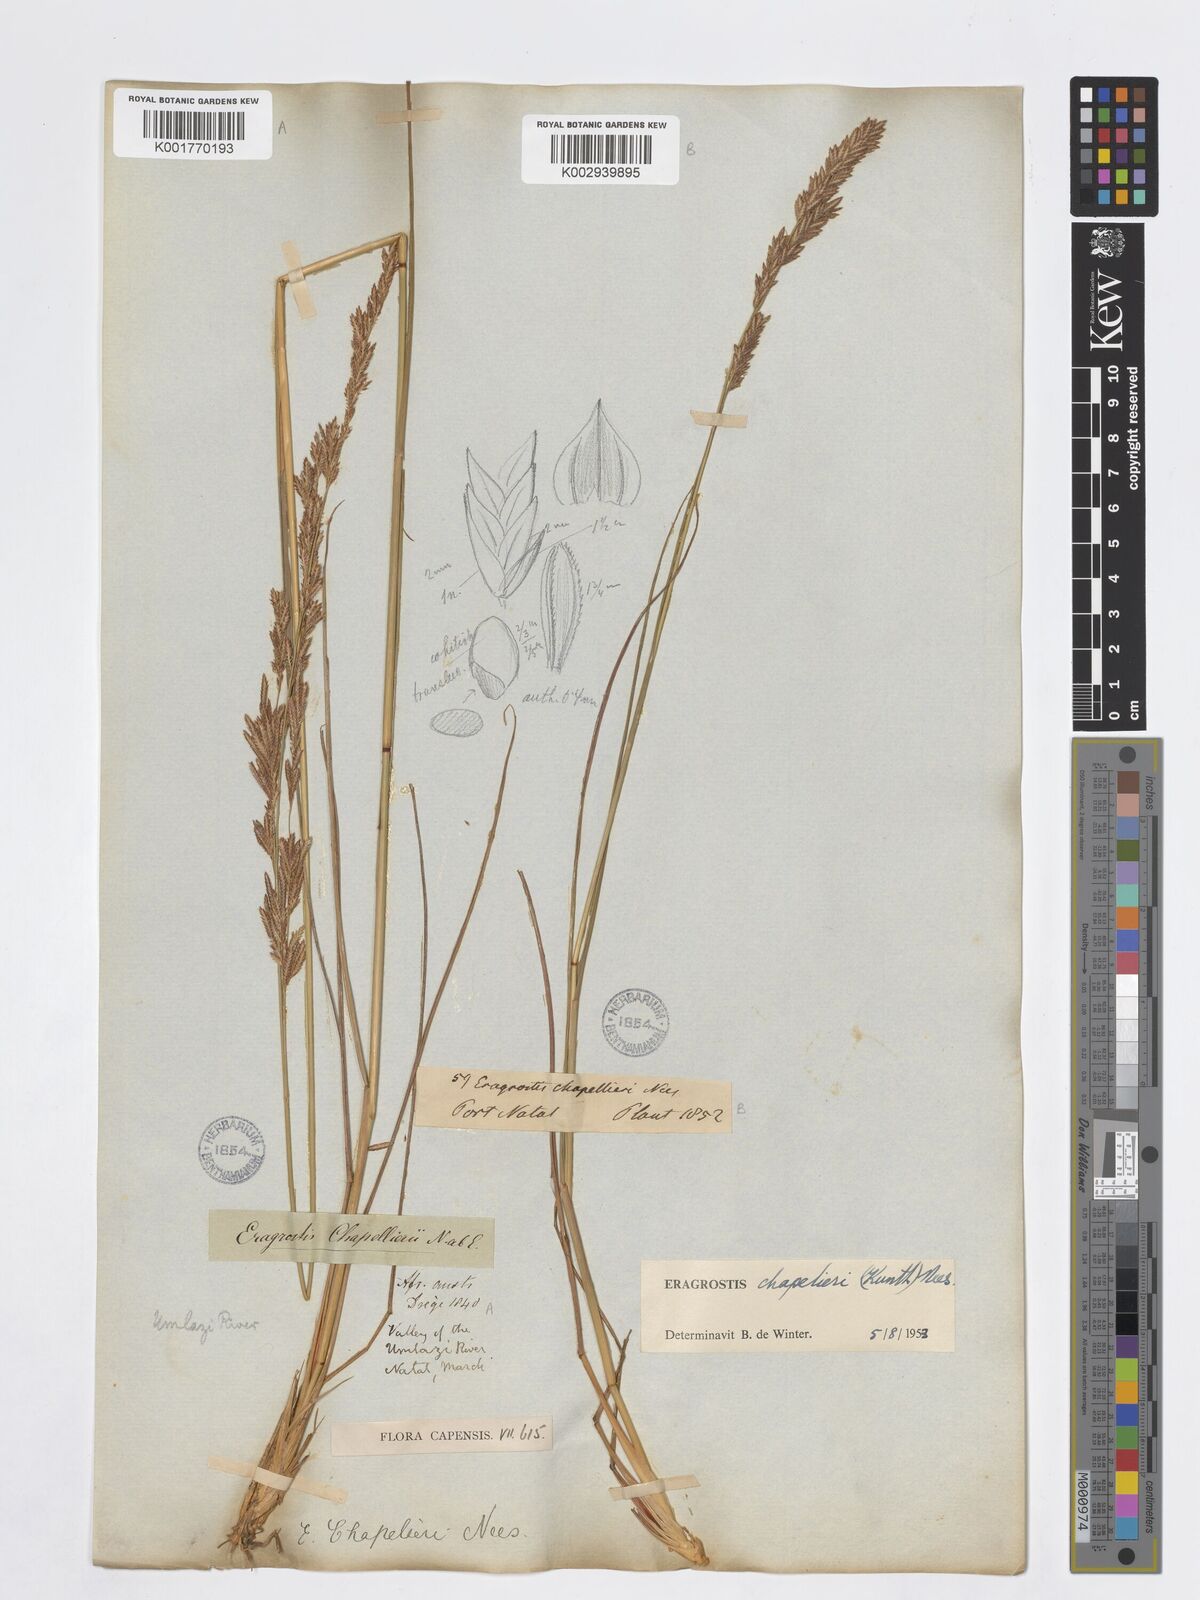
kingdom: Plantae
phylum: Tracheophyta
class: Liliopsida
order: Poales
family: Poaceae
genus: Eragrostis
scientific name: Eragrostis chapelieri
